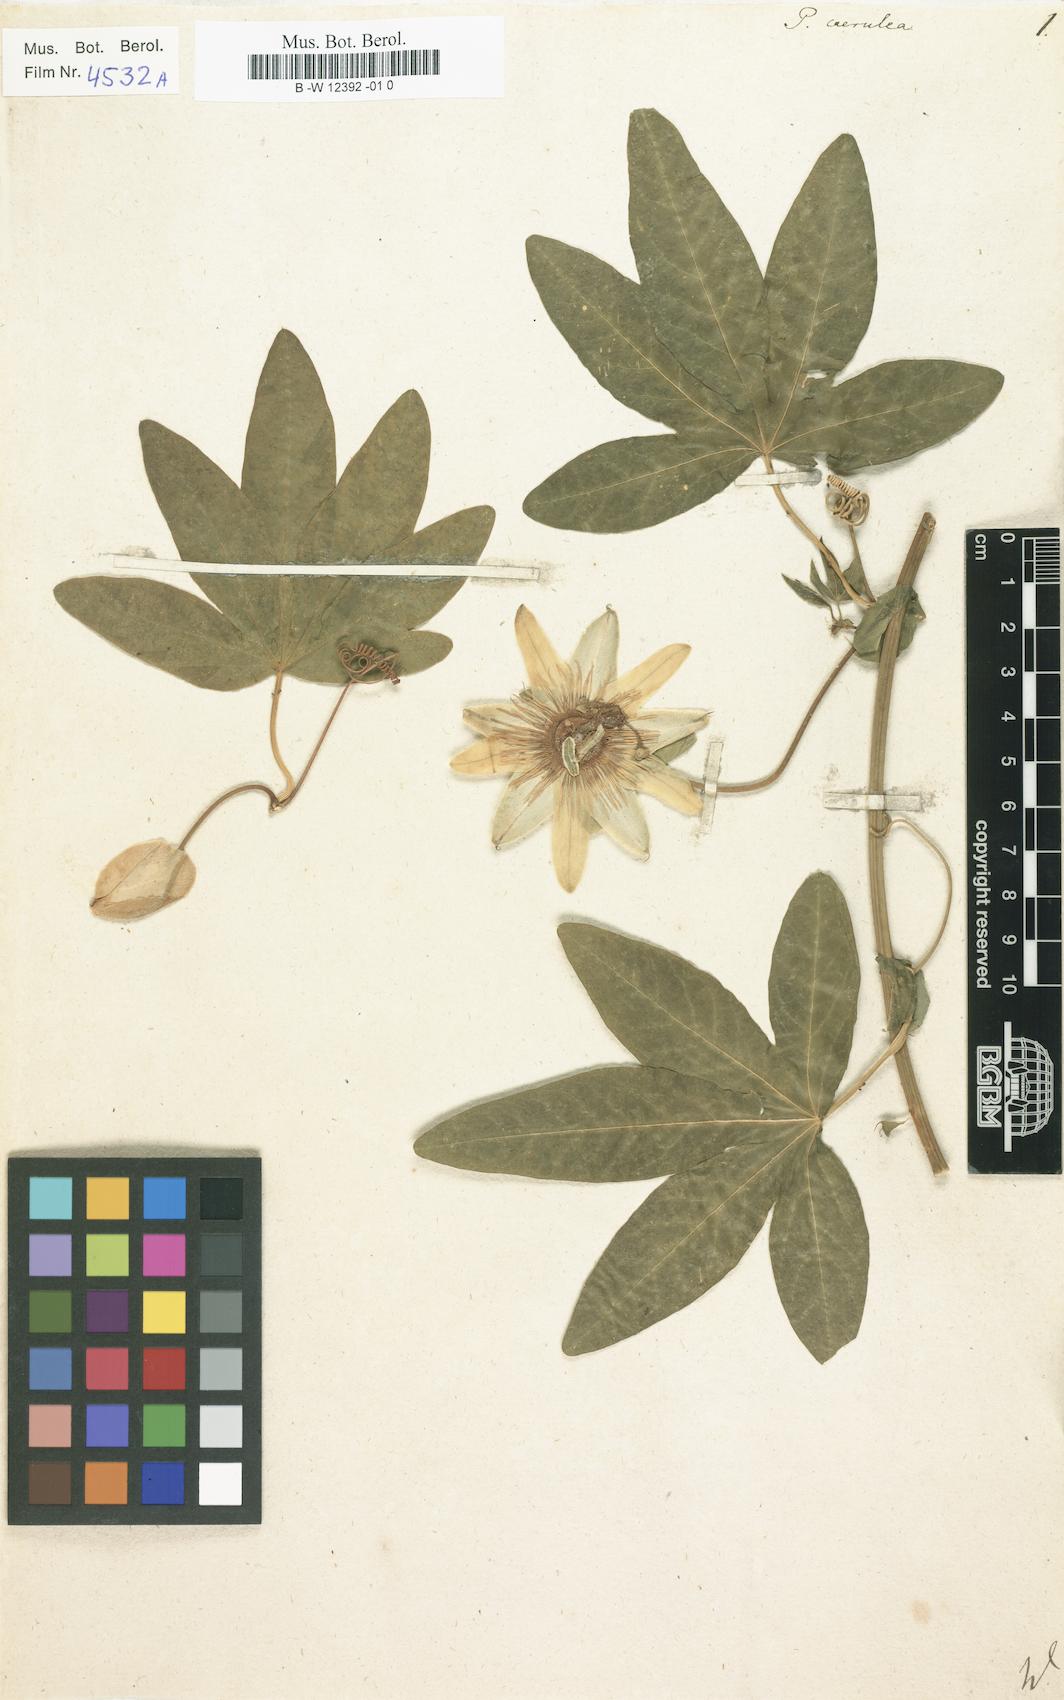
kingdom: Plantae
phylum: Tracheophyta
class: Magnoliopsida
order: Malpighiales
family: Passifloraceae
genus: Passiflora
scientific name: Passiflora caerulea
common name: Blue passionflower
